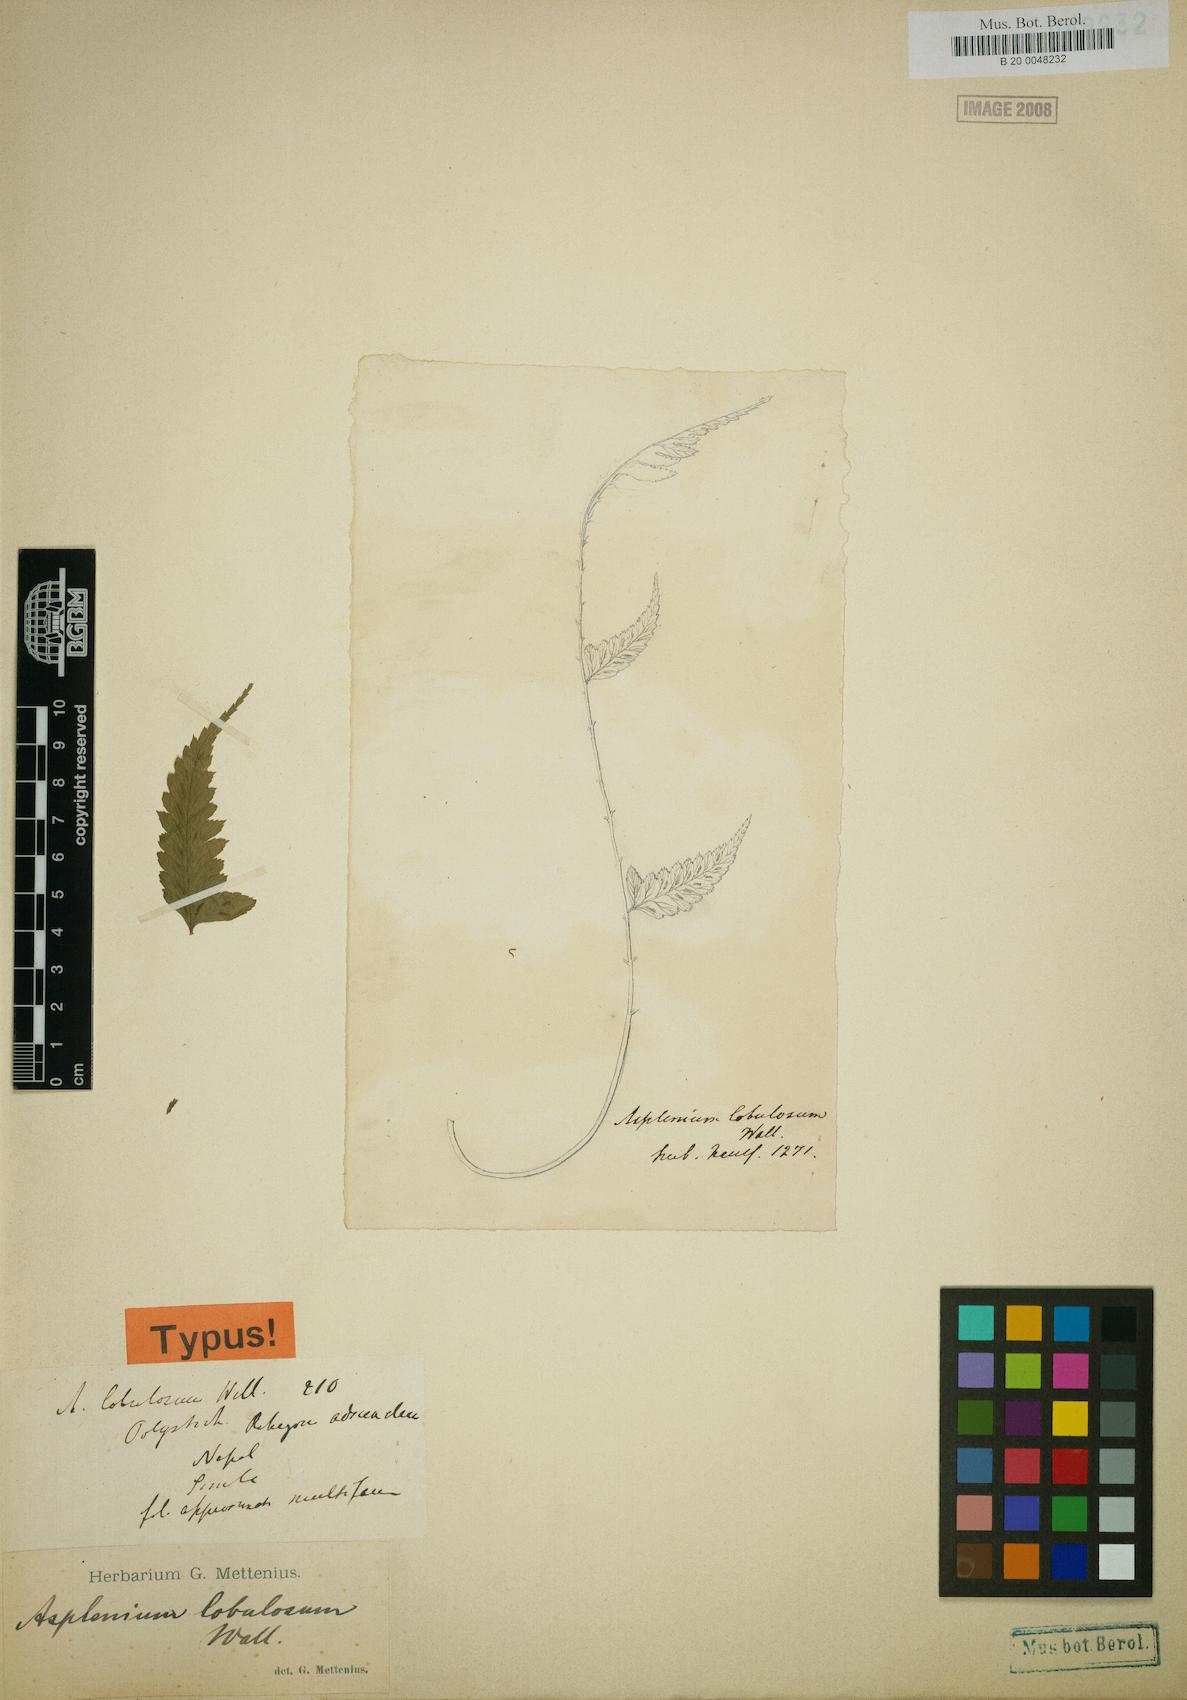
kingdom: Plantae
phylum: Tracheophyta
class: Polypodiopsida
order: Polypodiales
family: Athyriaceae
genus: Diplazium
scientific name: Diplazium longifolium
